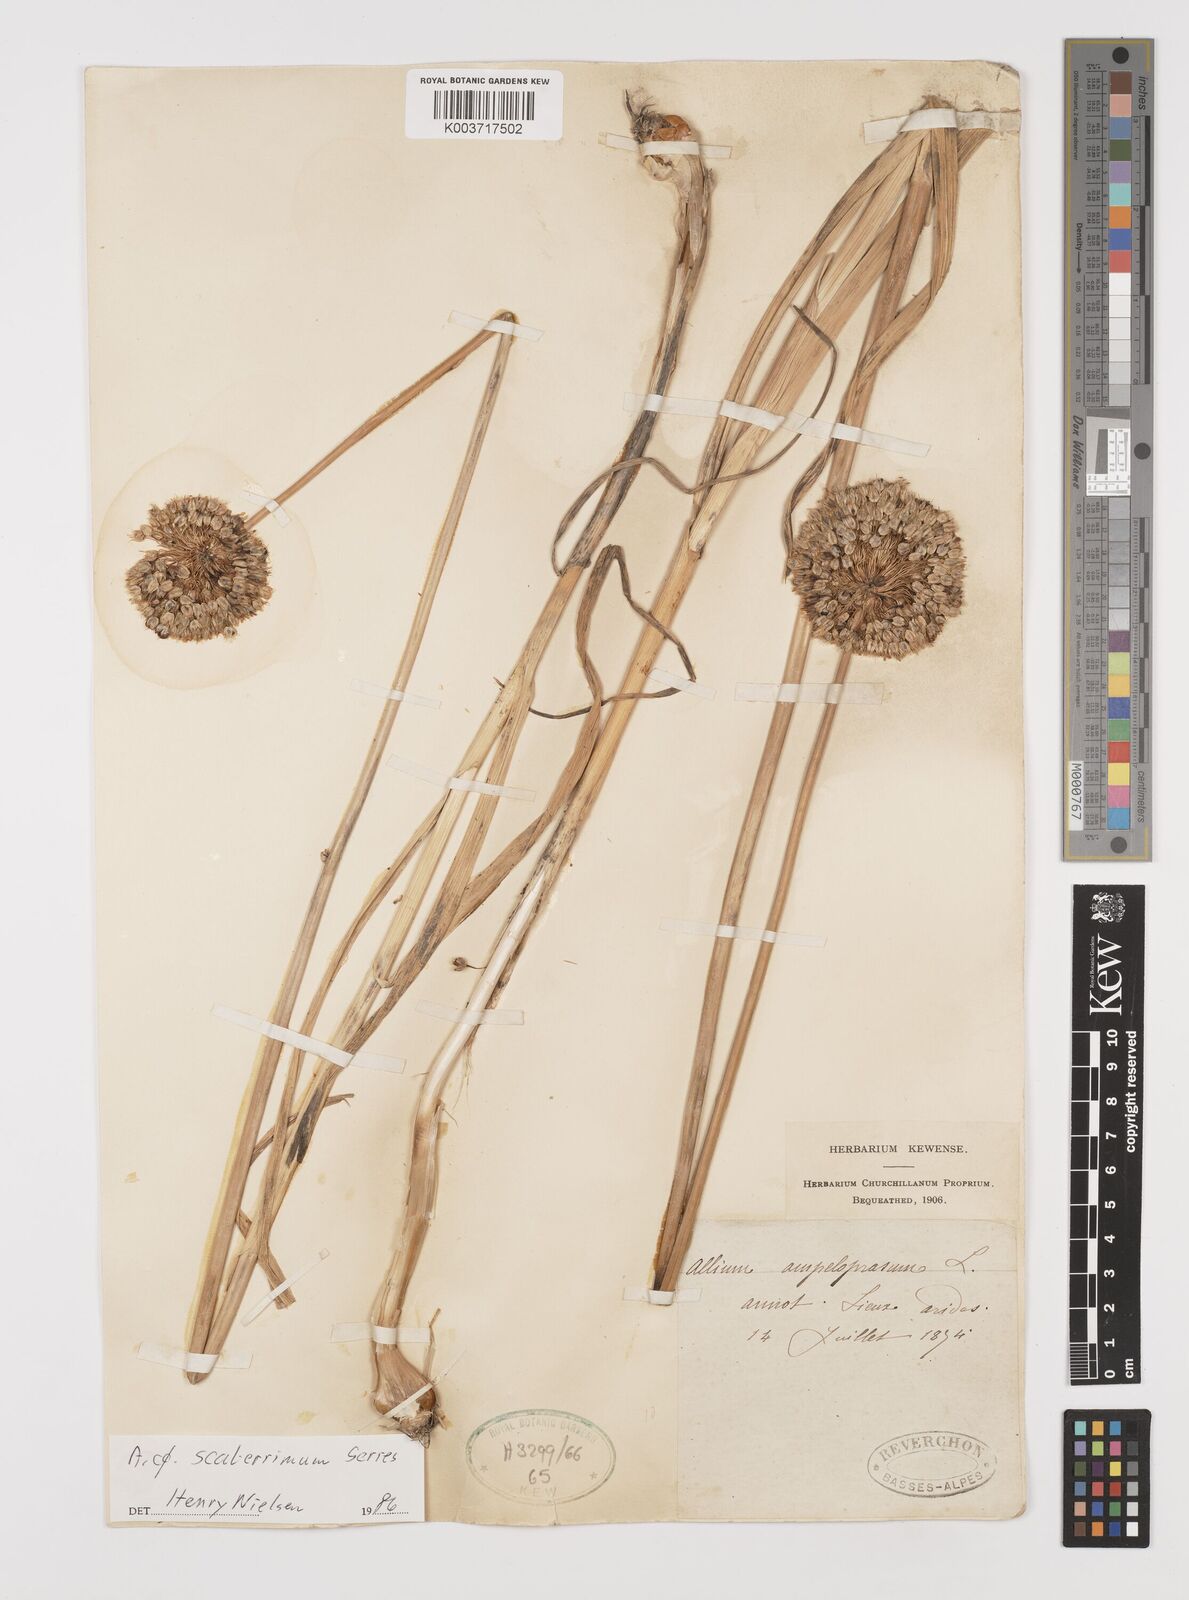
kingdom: Plantae
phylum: Tracheophyta
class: Liliopsida
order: Asparagales
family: Amaryllidaceae
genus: Allium
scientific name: Allium scaberrimum
